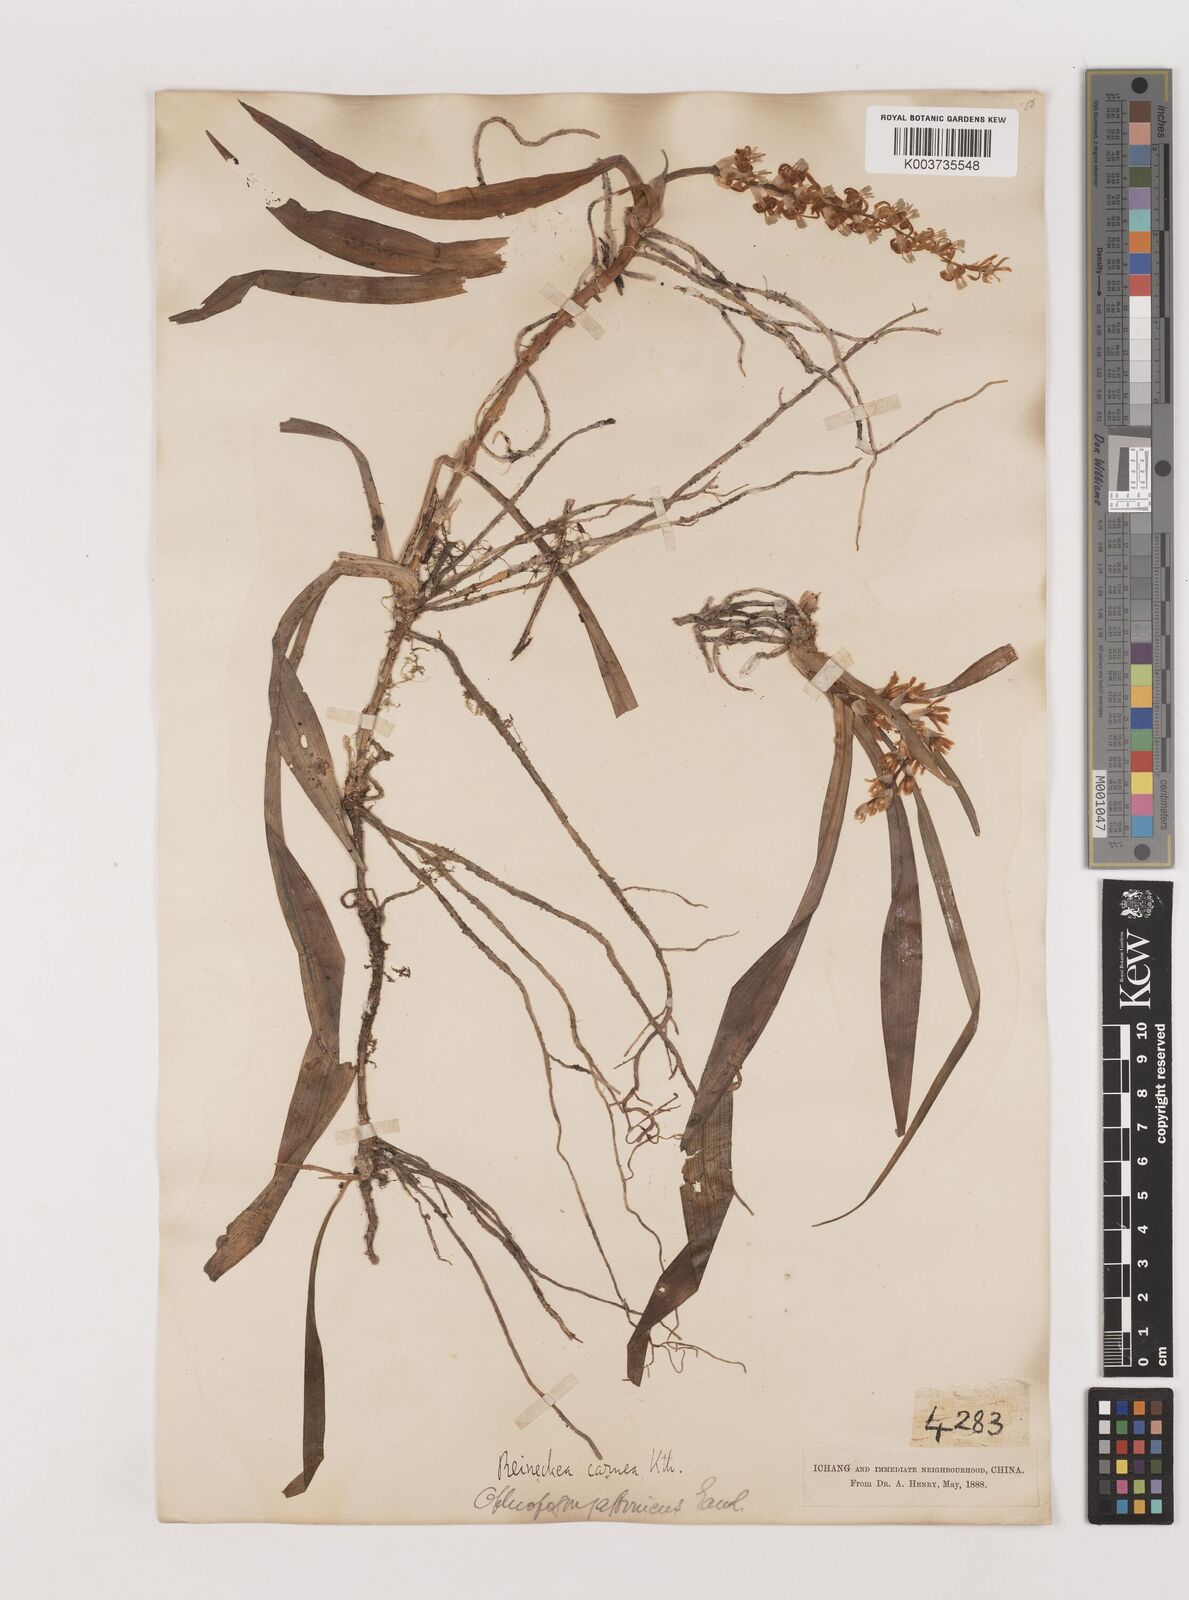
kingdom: Plantae
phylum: Tracheophyta
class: Liliopsida
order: Asparagales
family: Asparagaceae
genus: Reineckea
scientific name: Reineckea carnea
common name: Reineckea
